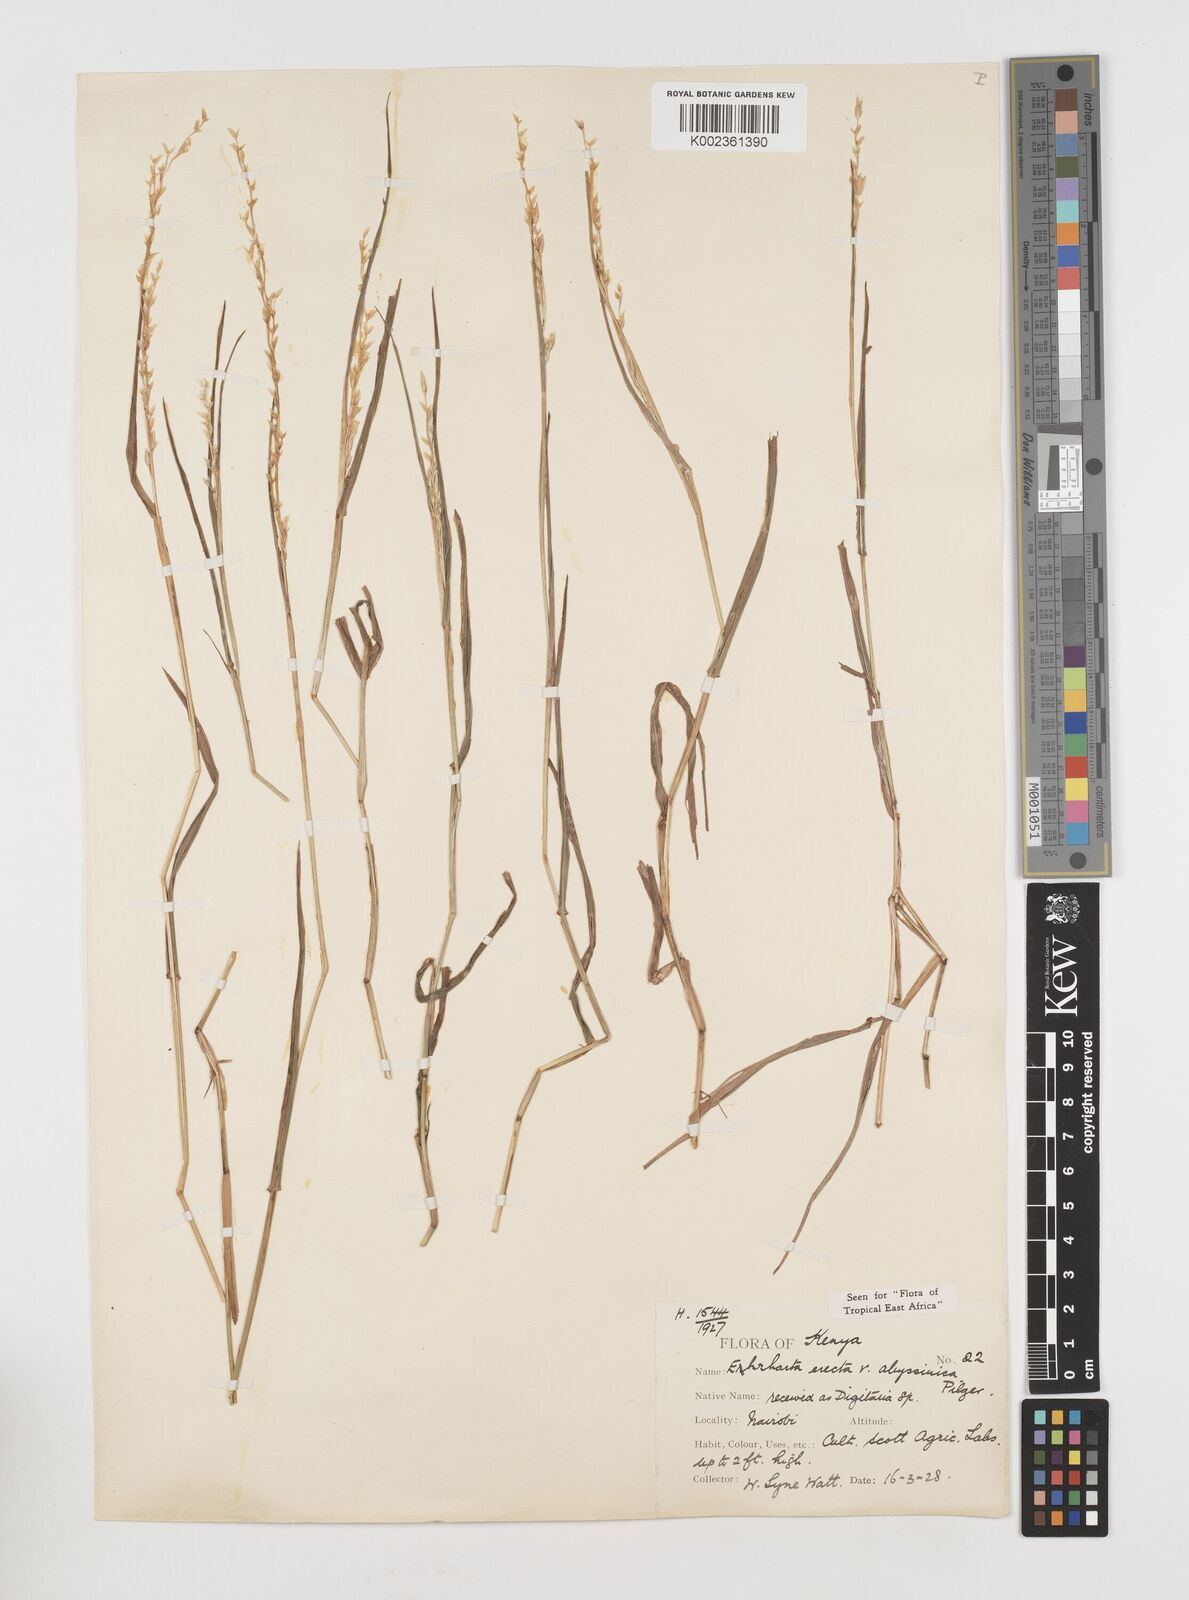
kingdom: Plantae
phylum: Tracheophyta
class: Liliopsida
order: Poales
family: Poaceae
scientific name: Poaceae
